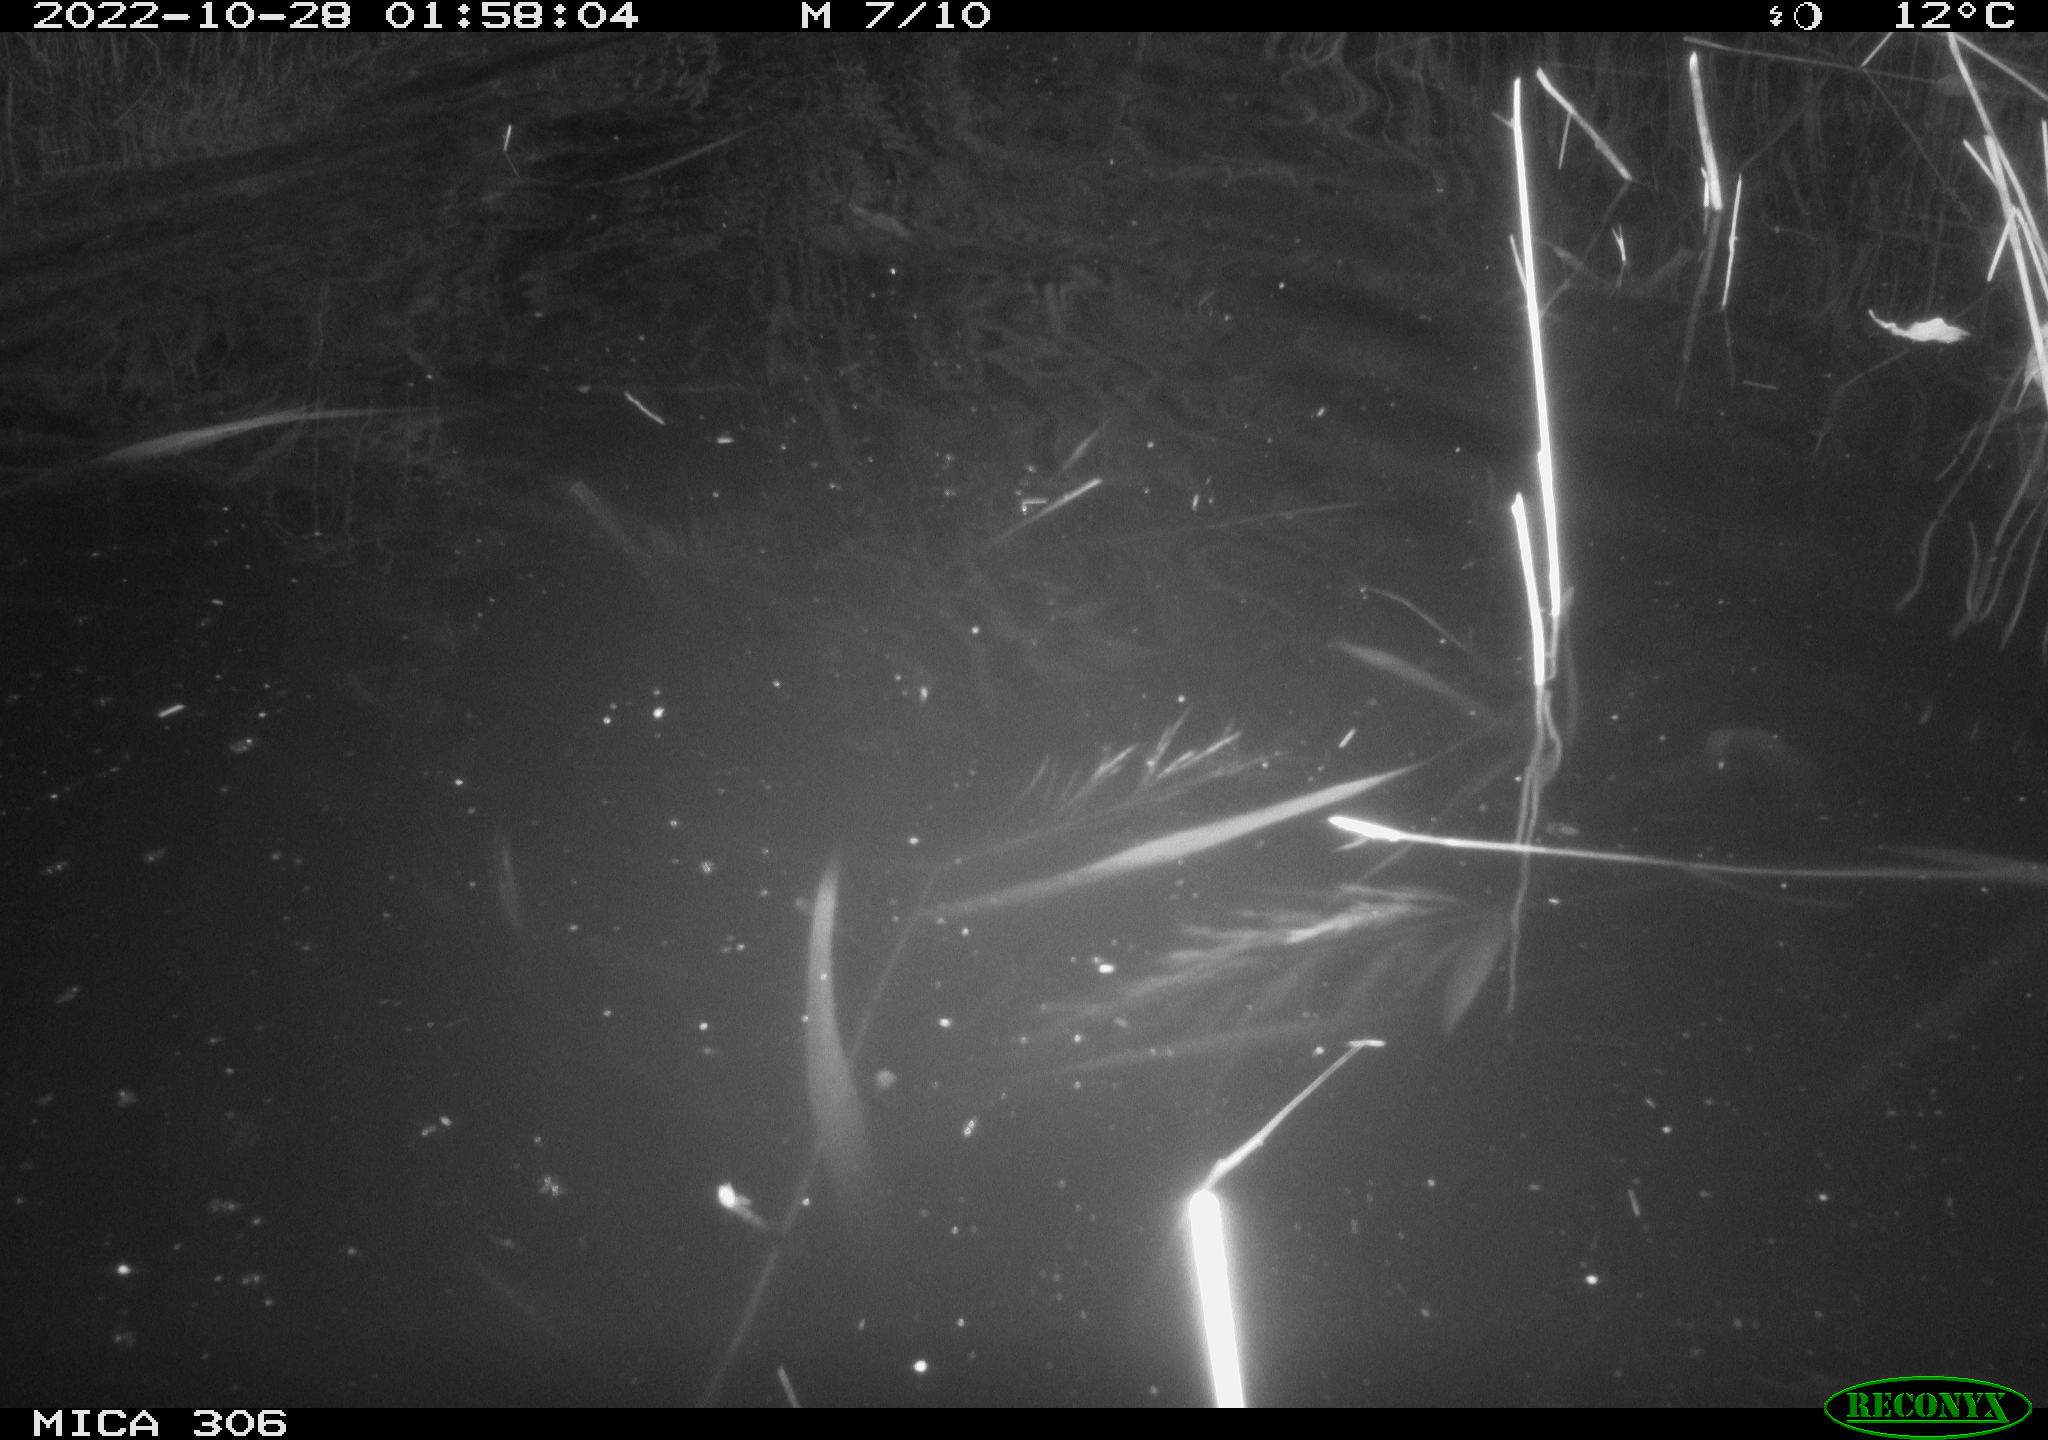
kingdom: Animalia
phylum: Chordata
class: Mammalia
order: Rodentia
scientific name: Rodentia
